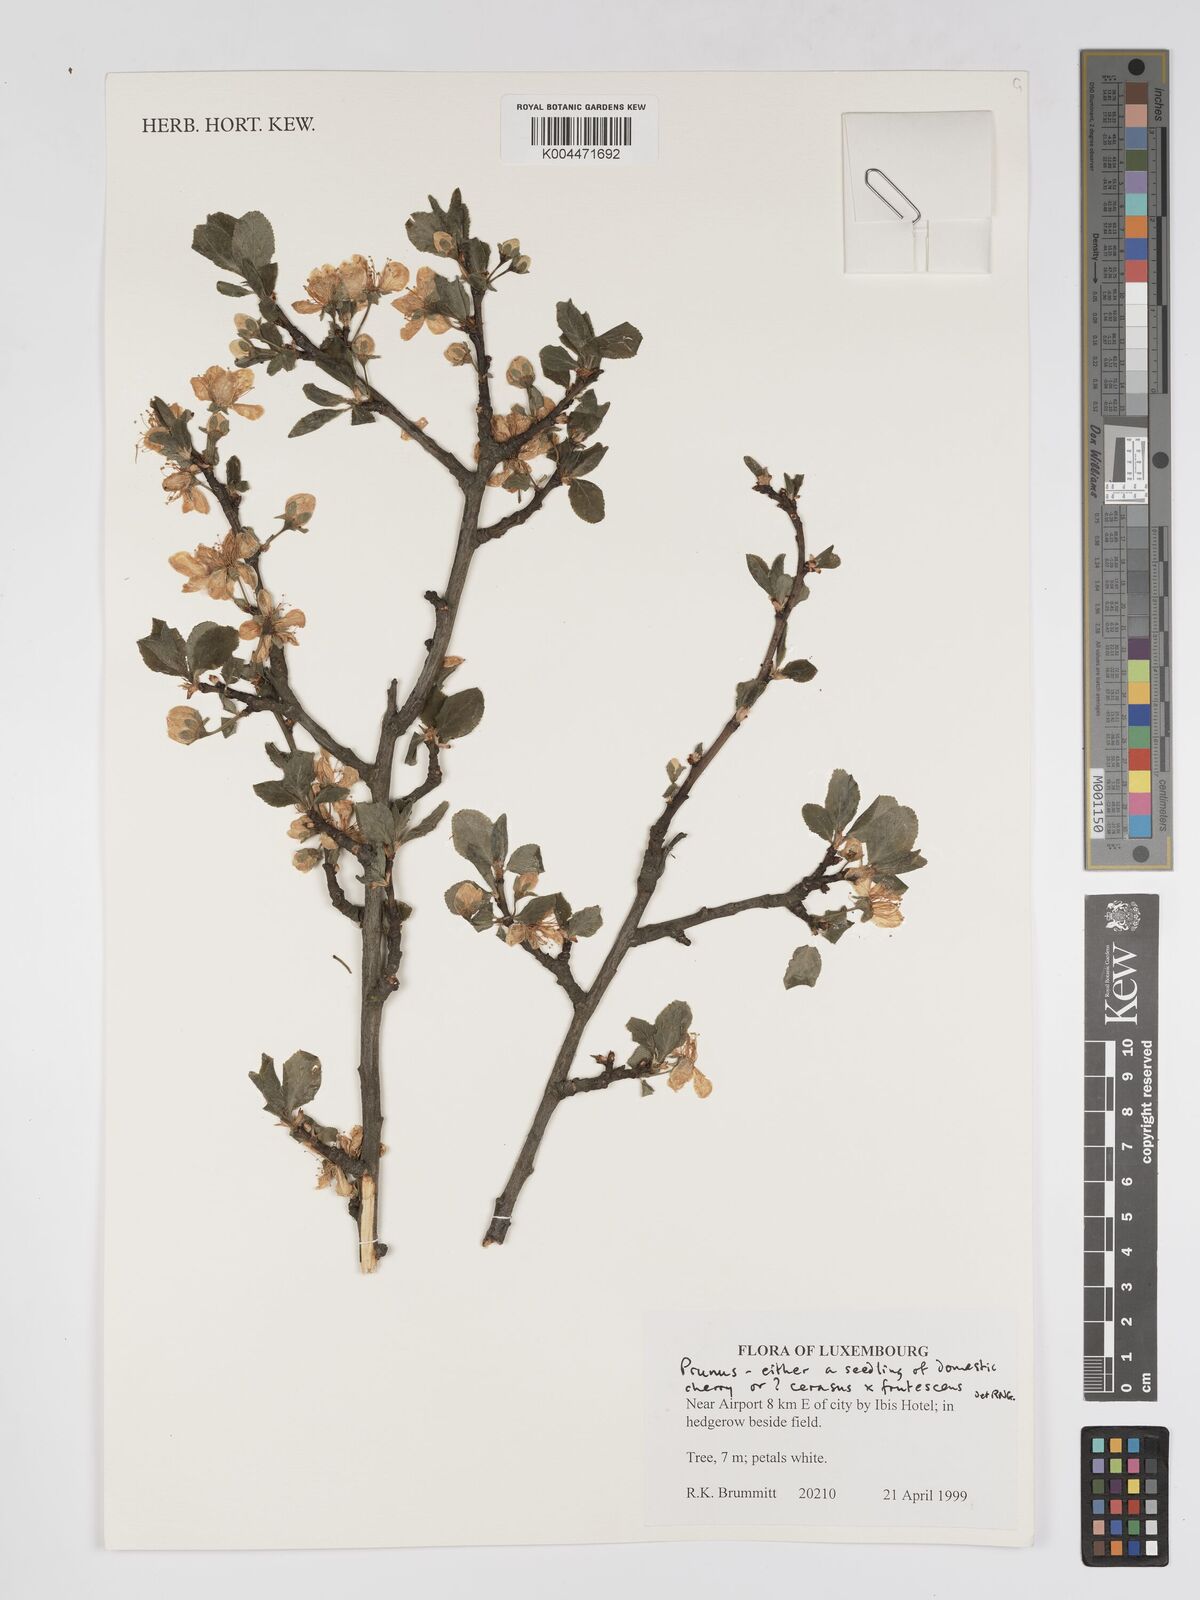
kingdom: Plantae
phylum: Tracheophyta
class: Magnoliopsida
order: Rosales
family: Rosaceae
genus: Prunus
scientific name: Prunus
